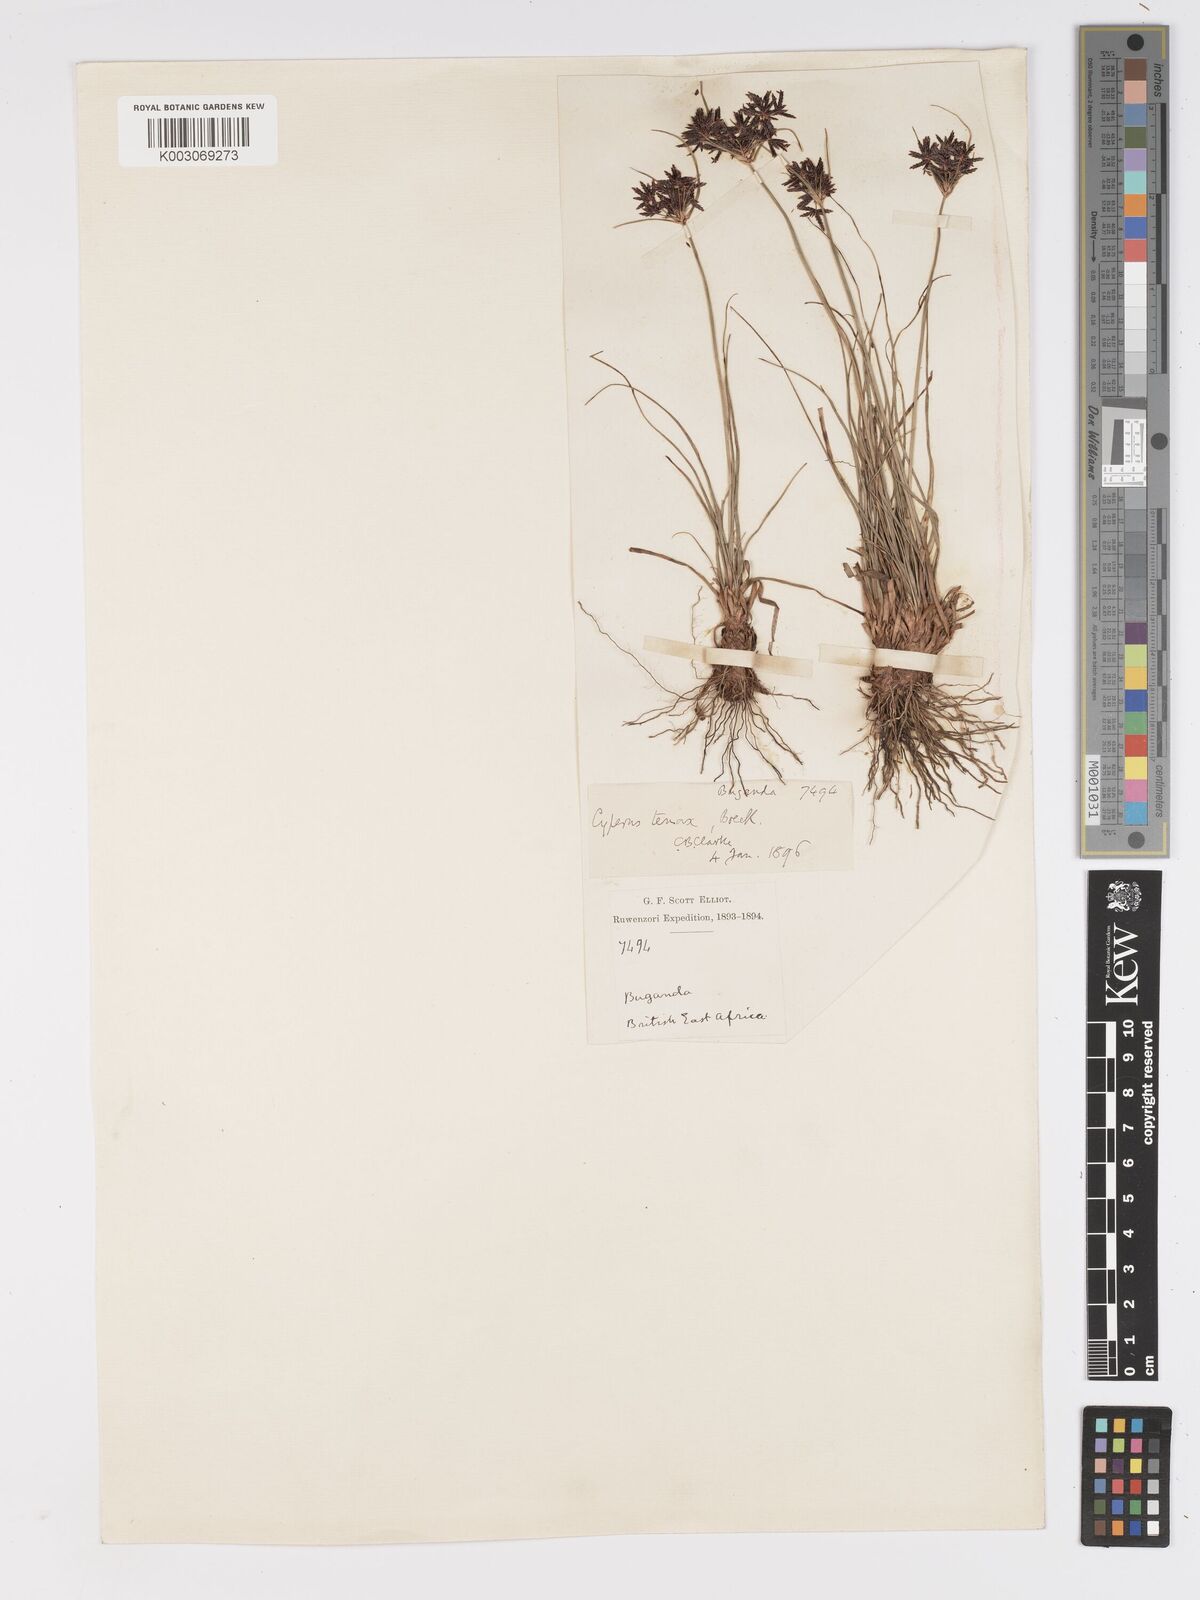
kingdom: Plantae
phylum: Tracheophyta
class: Liliopsida
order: Poales
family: Cyperaceae
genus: Cyperus
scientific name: Cyperus tenax
